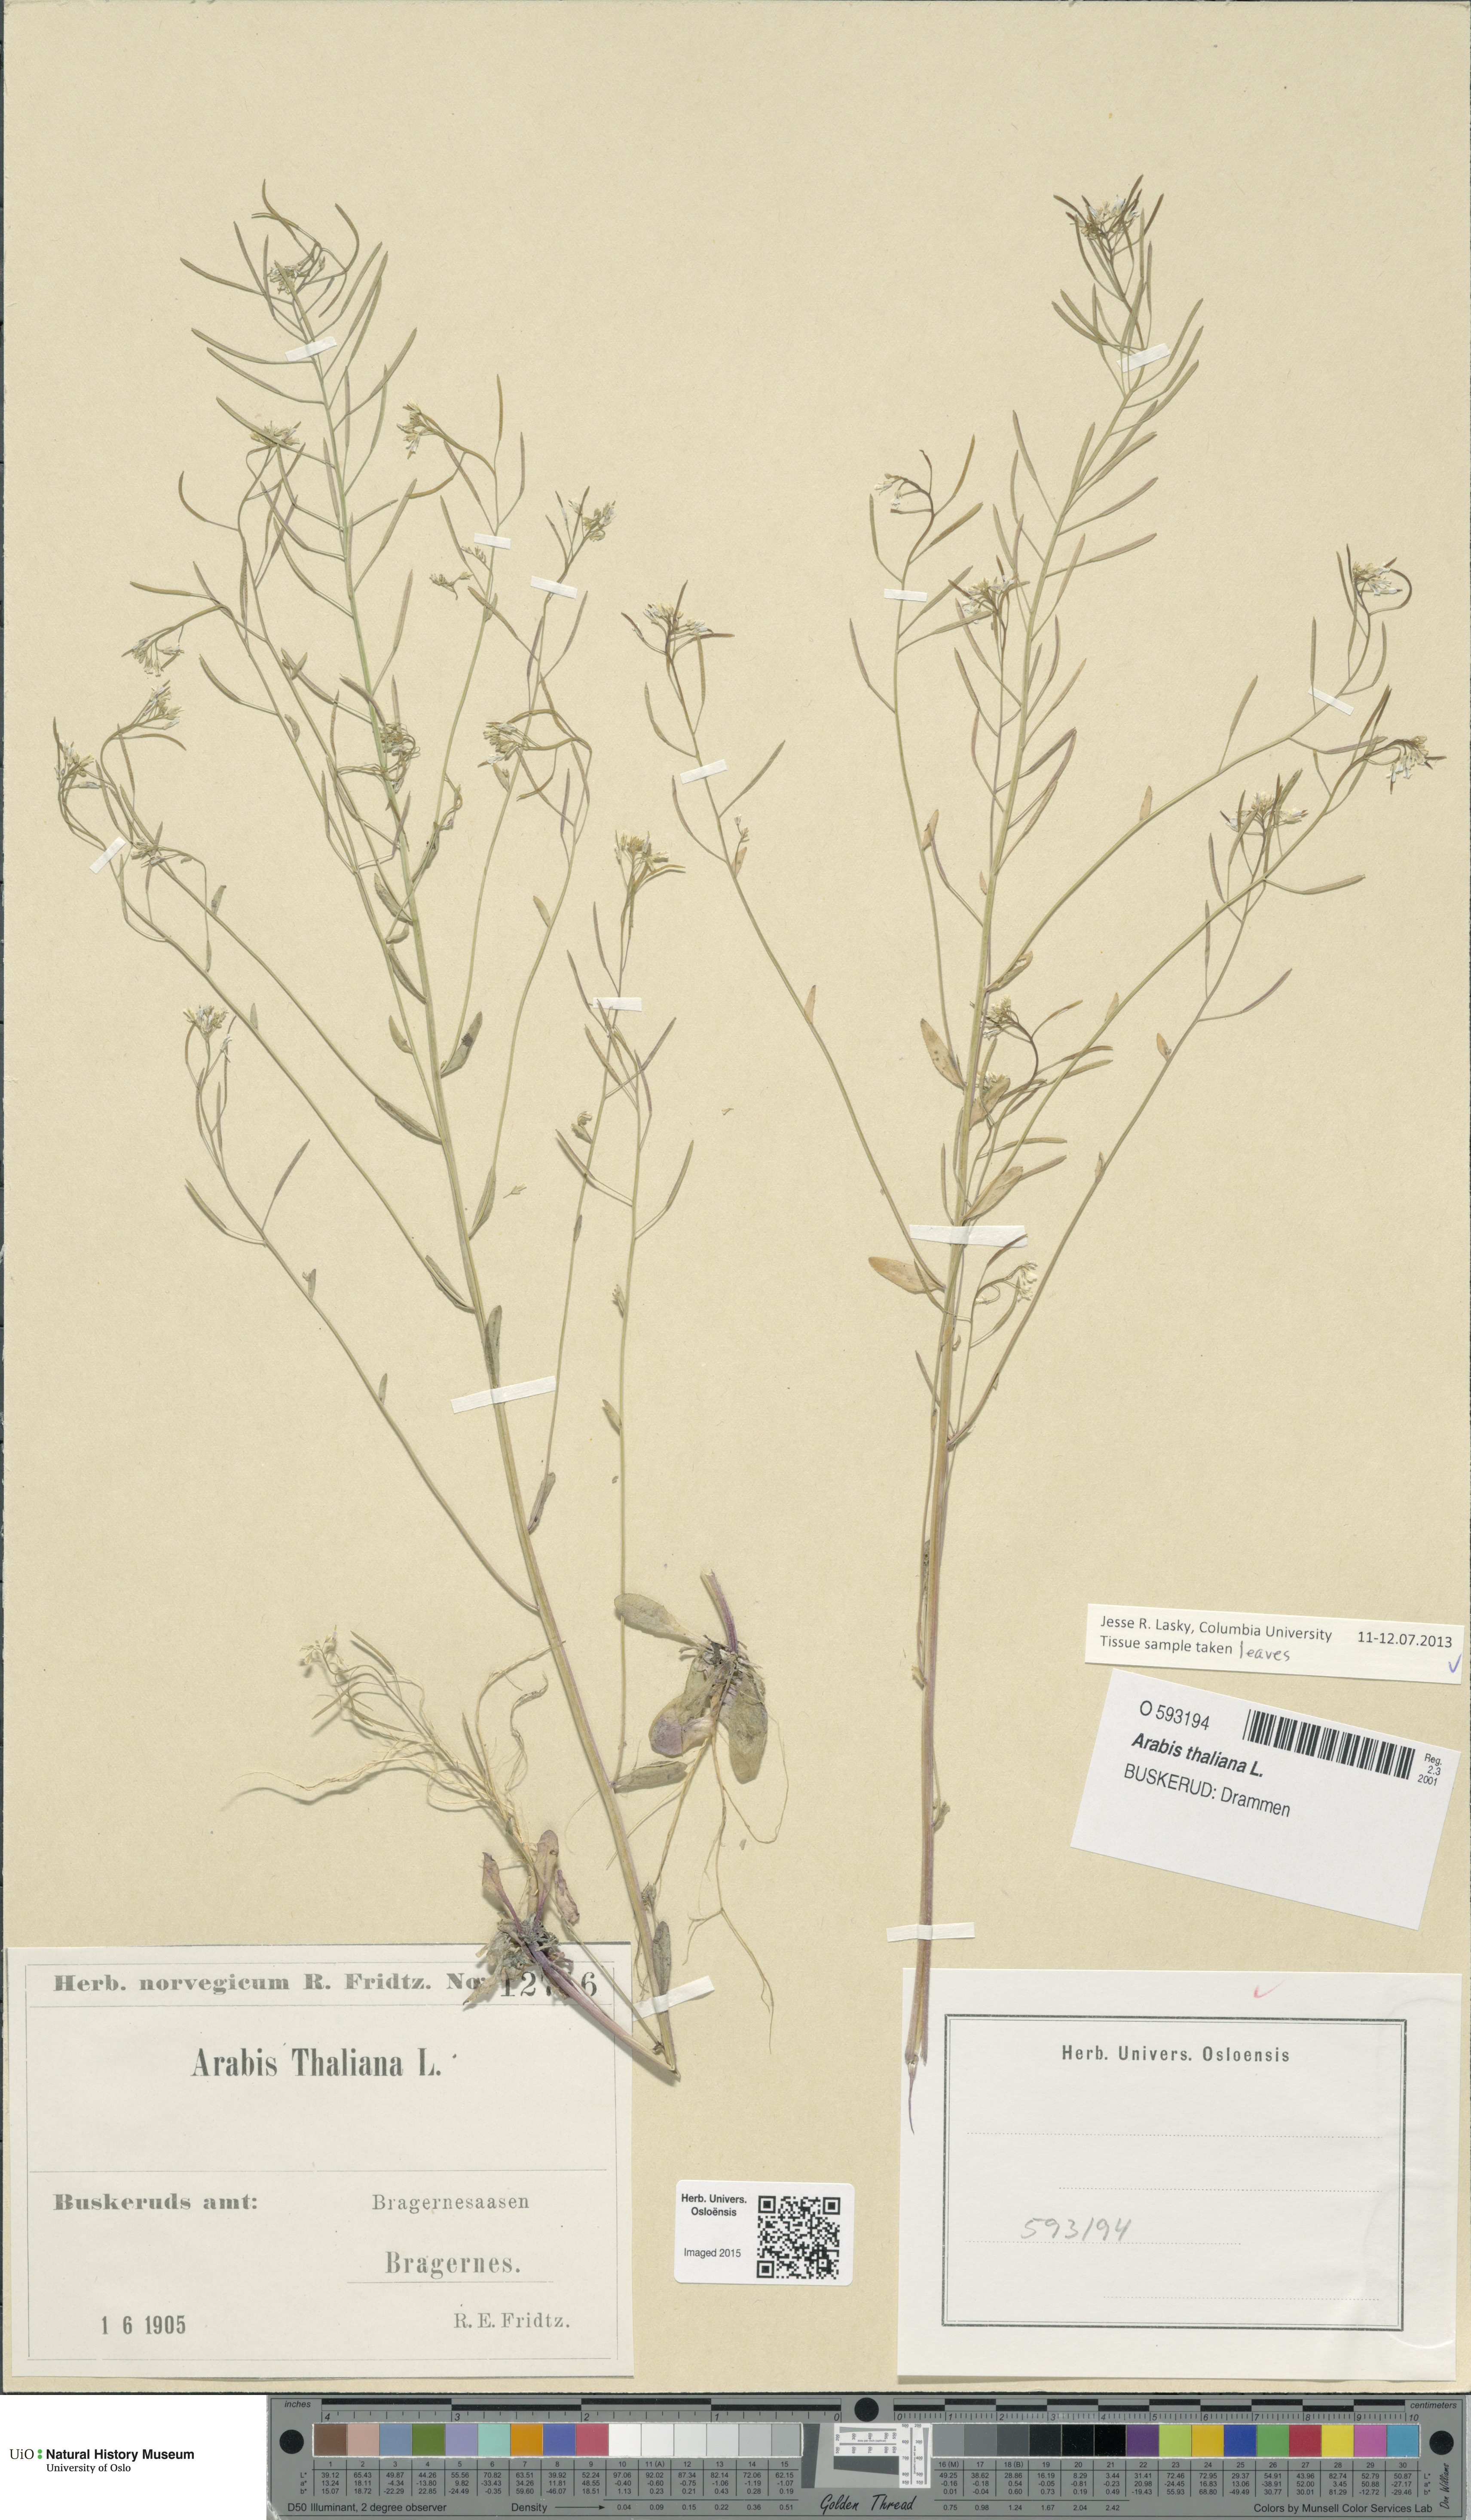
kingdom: Plantae
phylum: Tracheophyta
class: Magnoliopsida
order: Brassicales
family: Brassicaceae
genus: Arabidopsis
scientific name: Arabidopsis thaliana
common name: Thale cress
